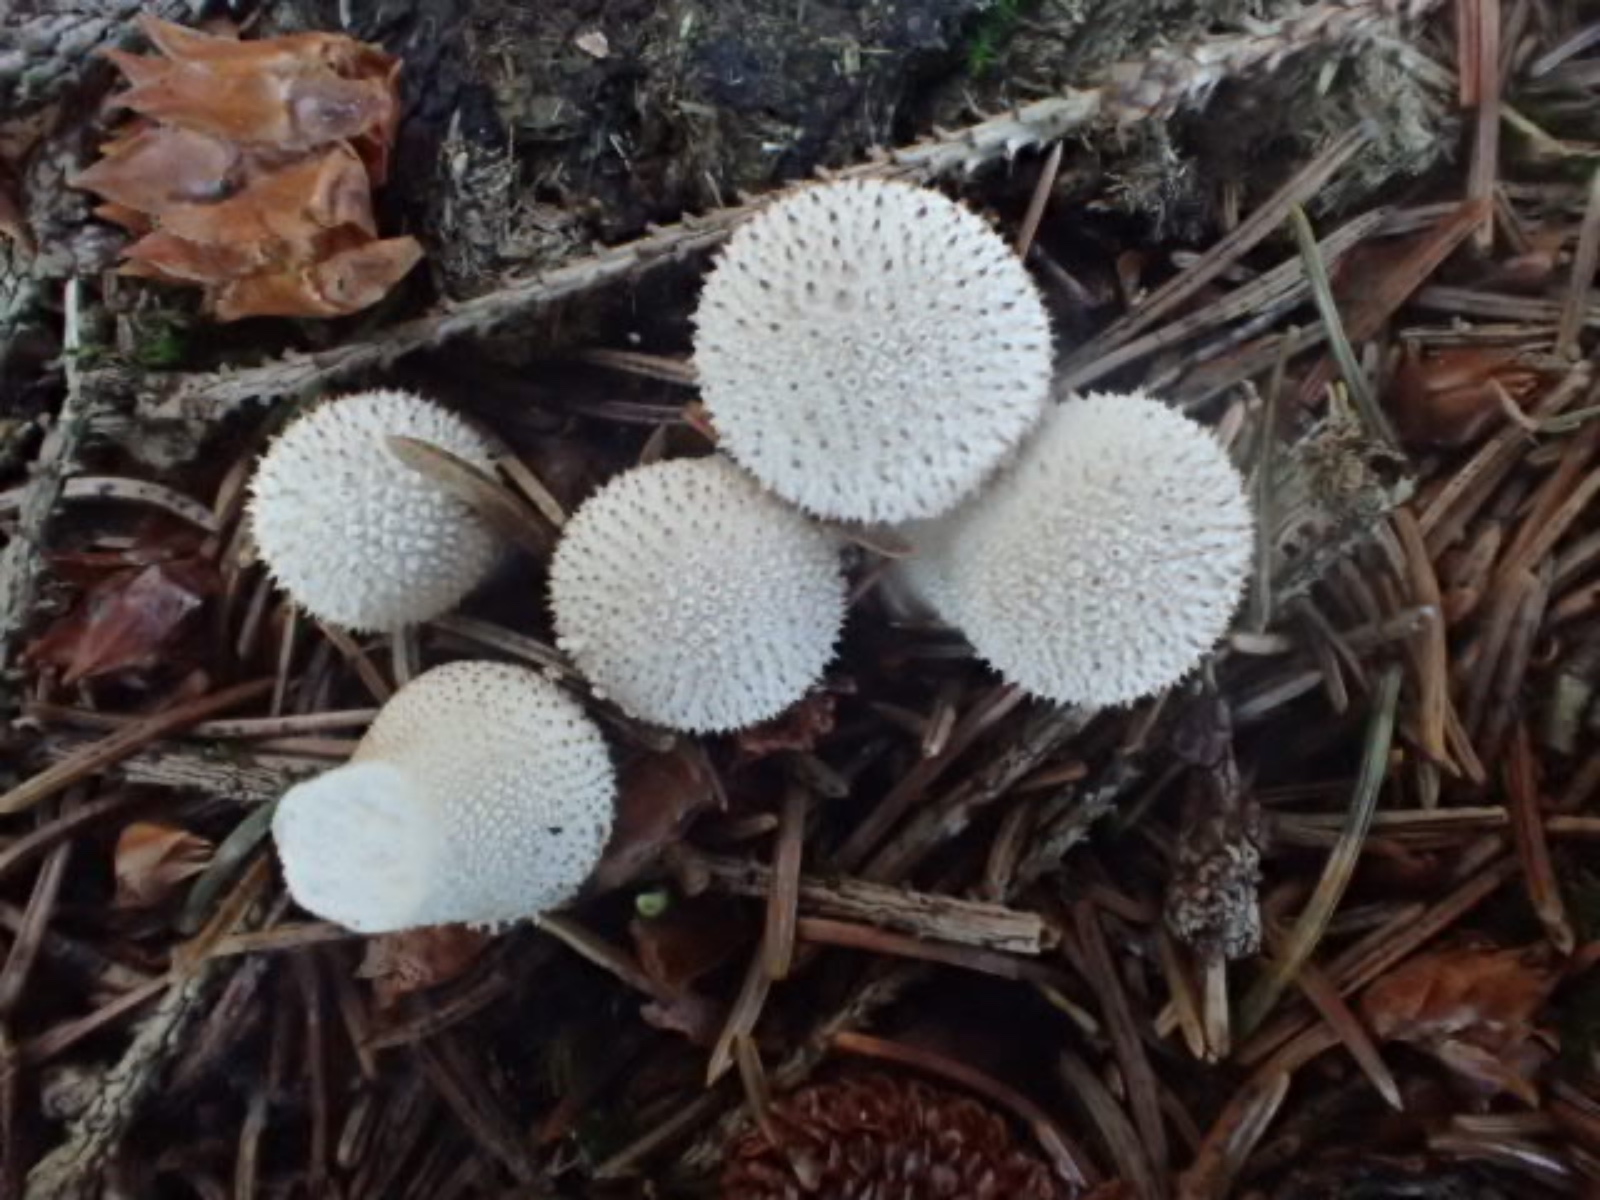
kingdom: Fungi
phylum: Basidiomycota
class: Agaricomycetes
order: Agaricales
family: Lycoperdaceae
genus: Lycoperdon
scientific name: Lycoperdon perlatum
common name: krystal-støvbold
